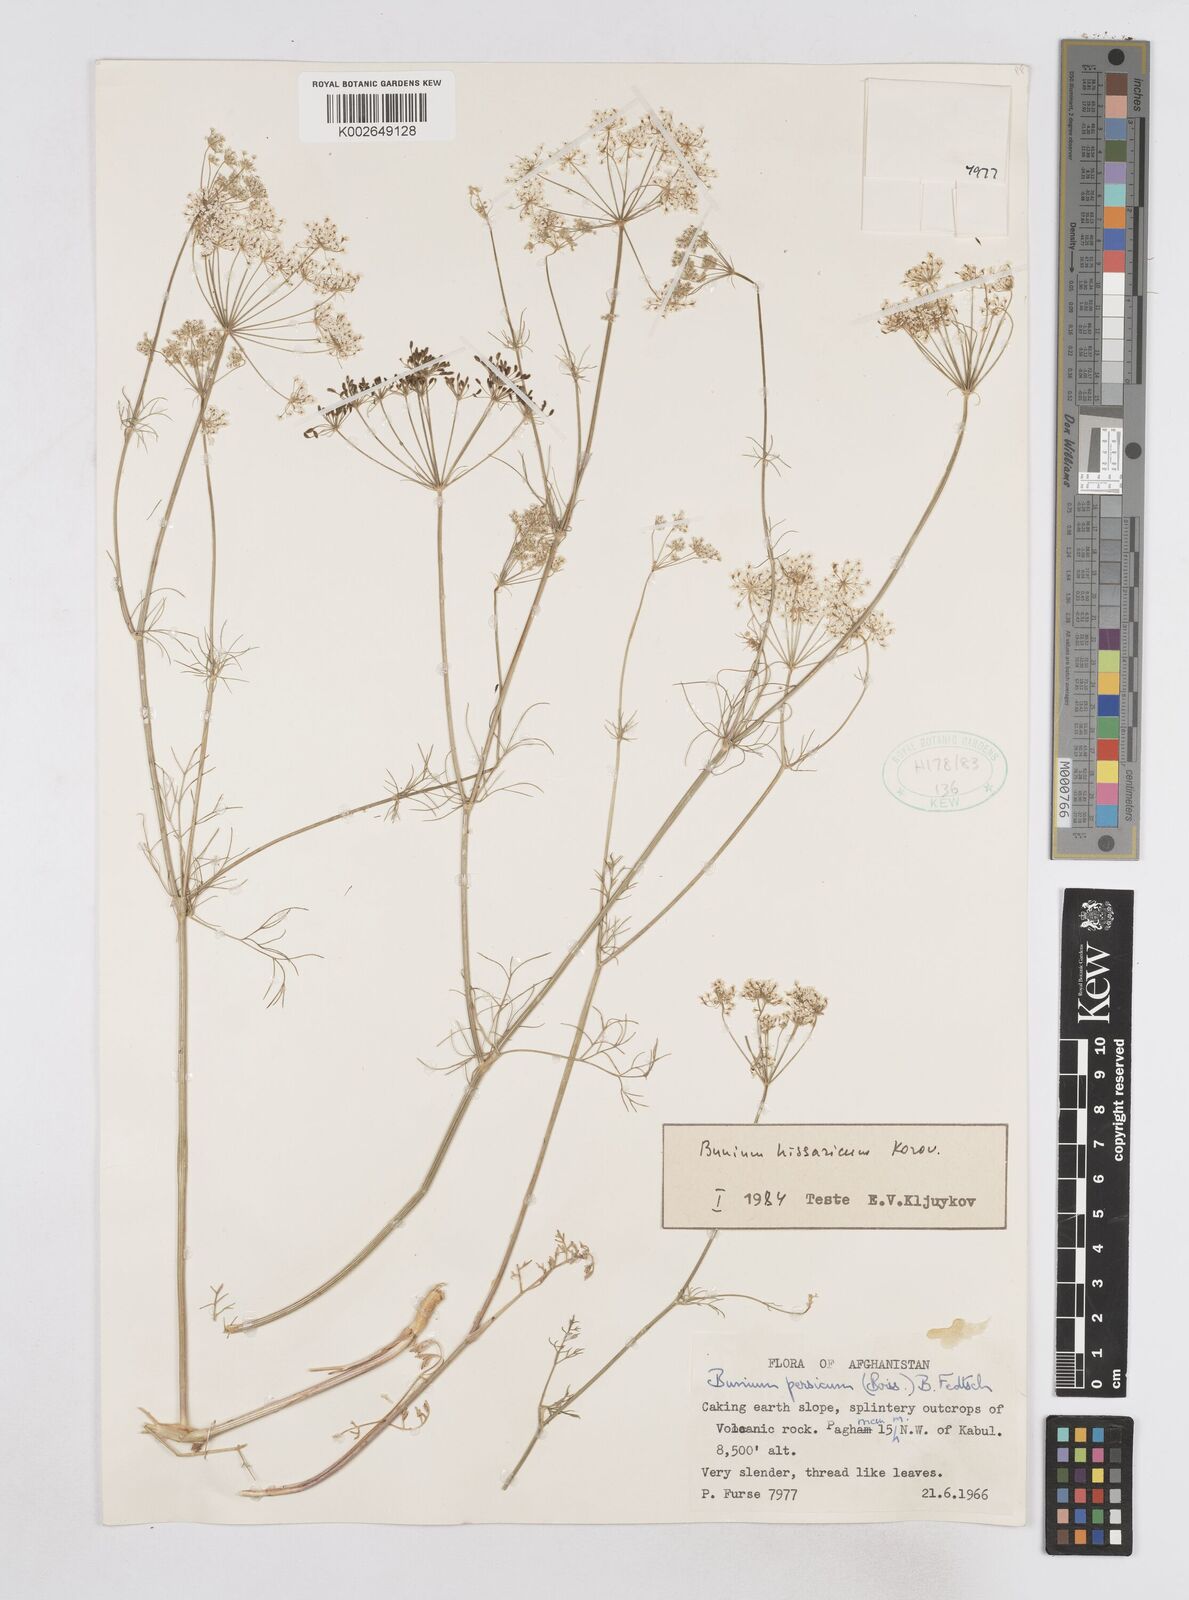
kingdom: Plantae
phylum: Tracheophyta
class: Magnoliopsida
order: Apiales
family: Apiaceae
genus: Elwendia
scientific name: Elwendia hissarica
